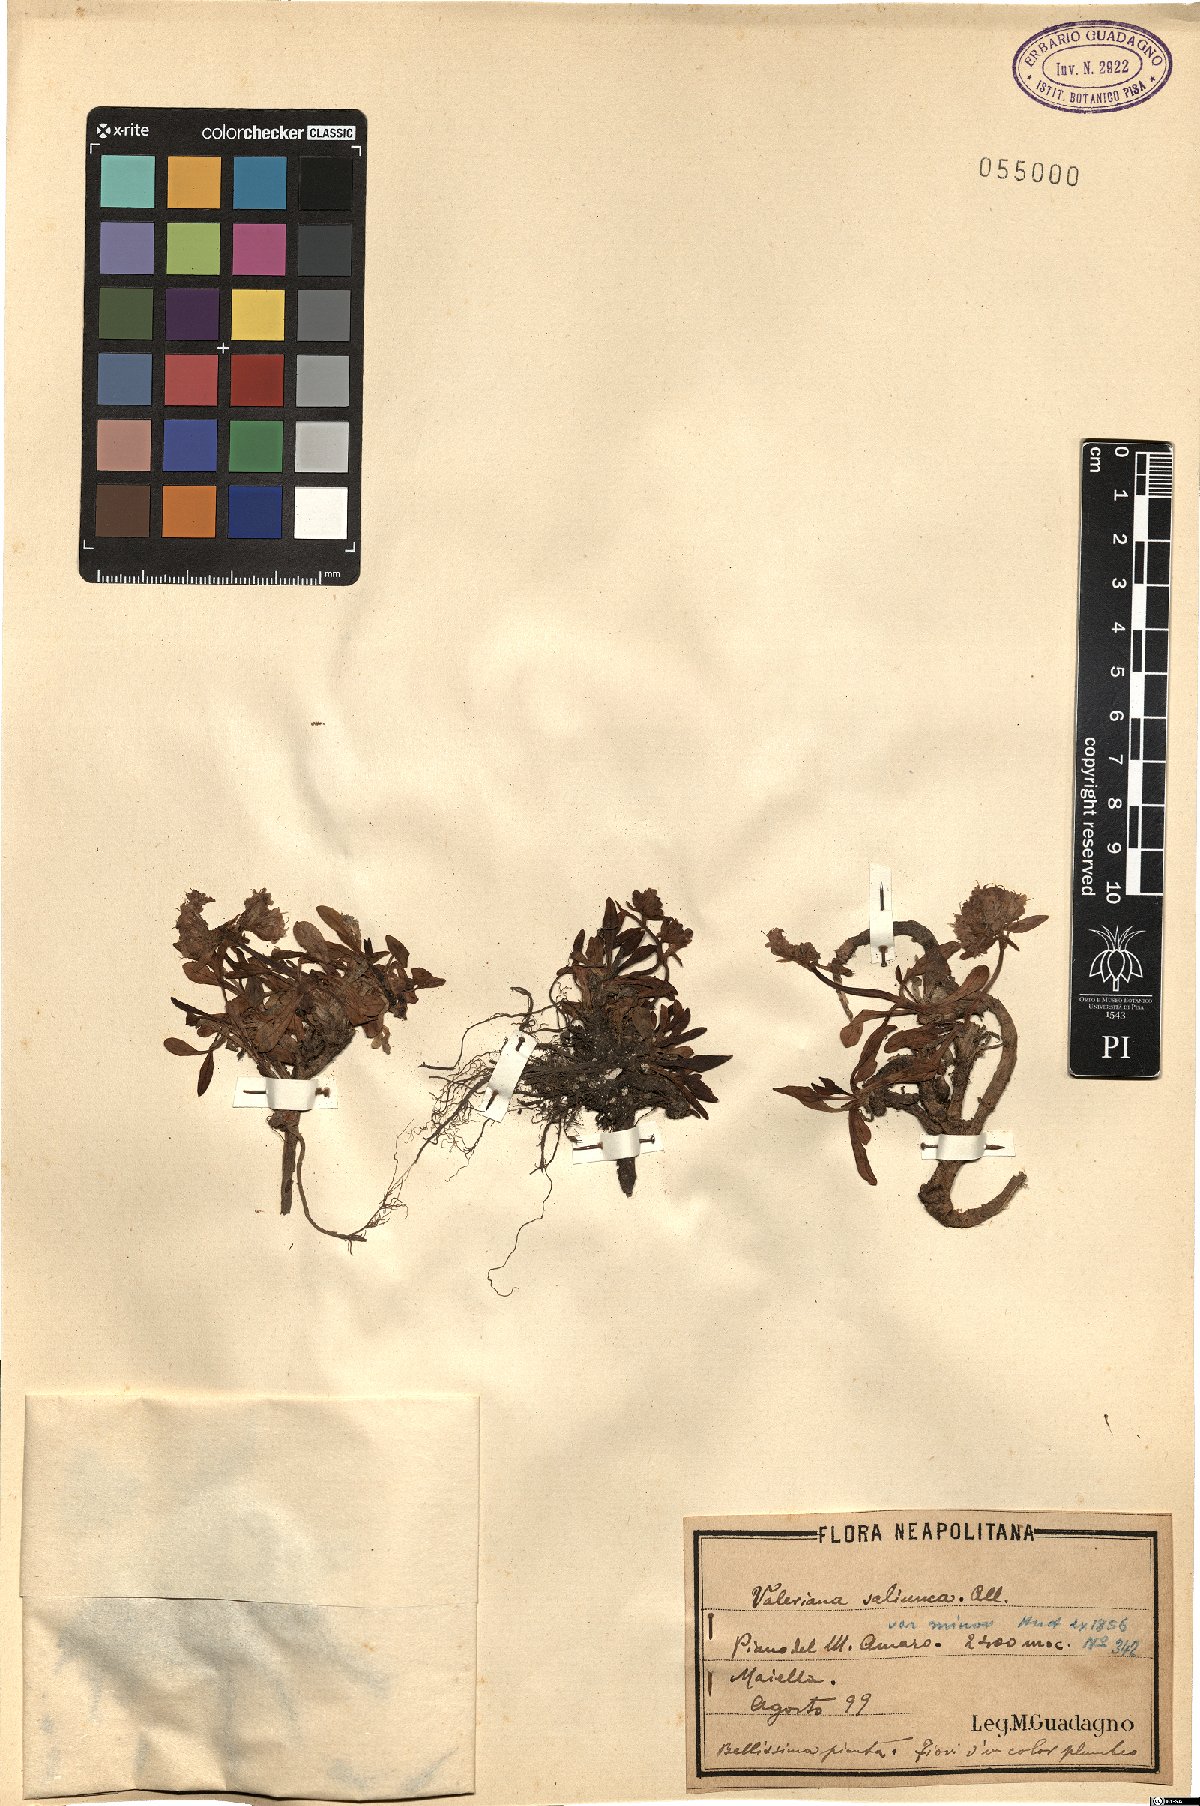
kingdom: Plantae
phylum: Tracheophyta
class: Magnoliopsida
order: Dipsacales
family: Caprifoliaceae
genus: Valeriana
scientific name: Valeriana saliunca
